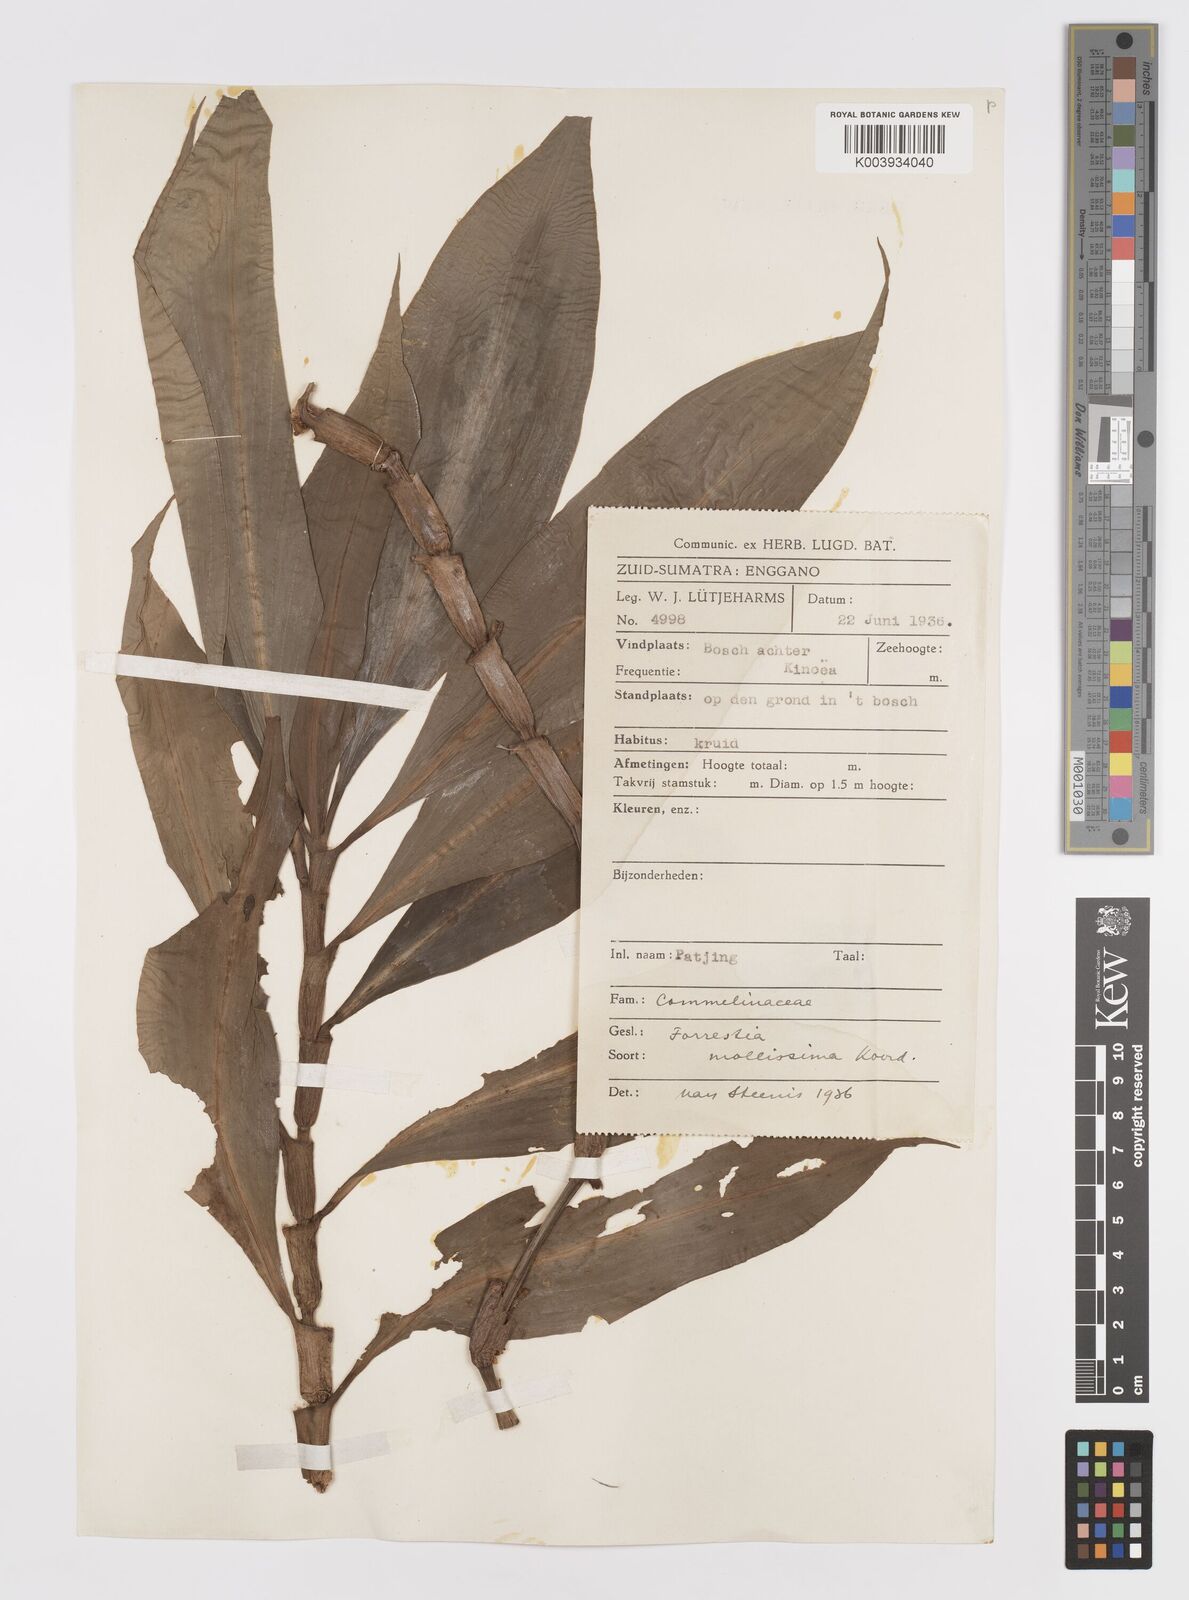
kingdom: Plantae
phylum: Tracheophyta
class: Liliopsida
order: Commelinales
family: Commelinaceae
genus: Amischotolype
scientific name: Amischotolype mollissima
